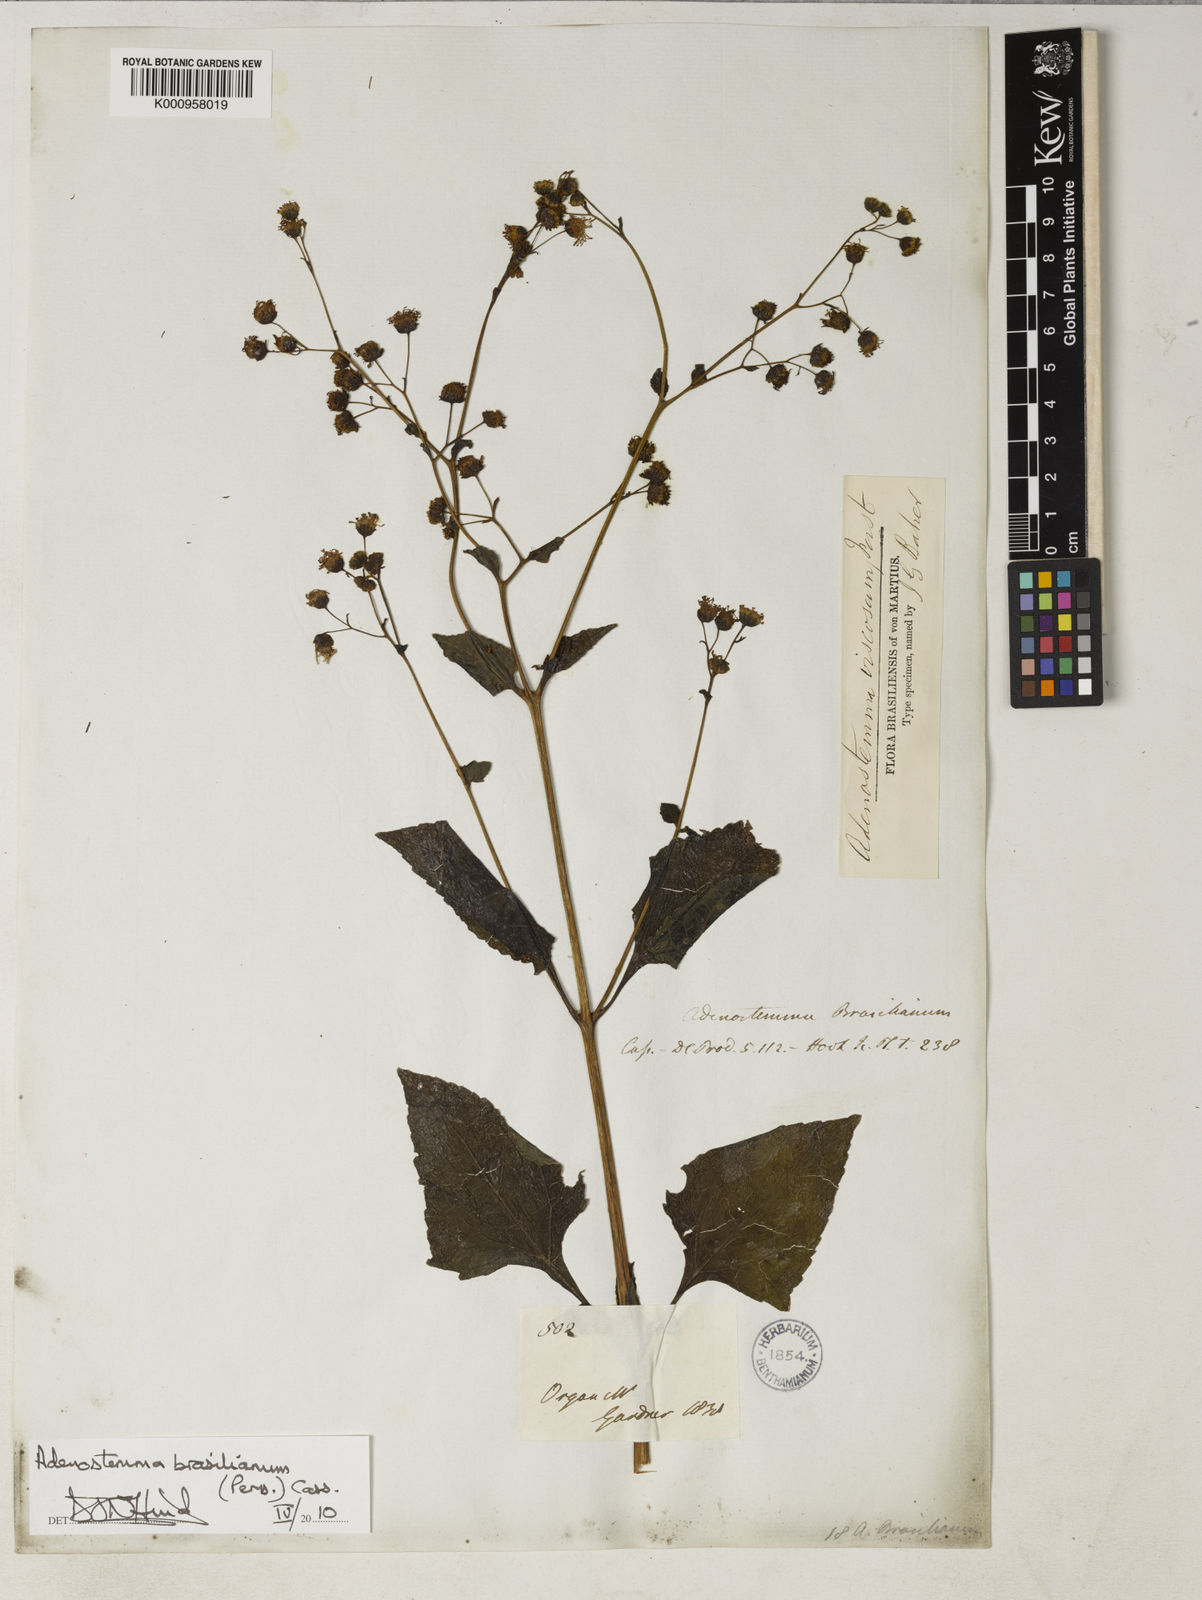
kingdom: Plantae
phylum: Tracheophyta
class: Magnoliopsida
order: Asterales
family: Asteraceae
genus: Adenostemma
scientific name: Adenostemma brasilianum
